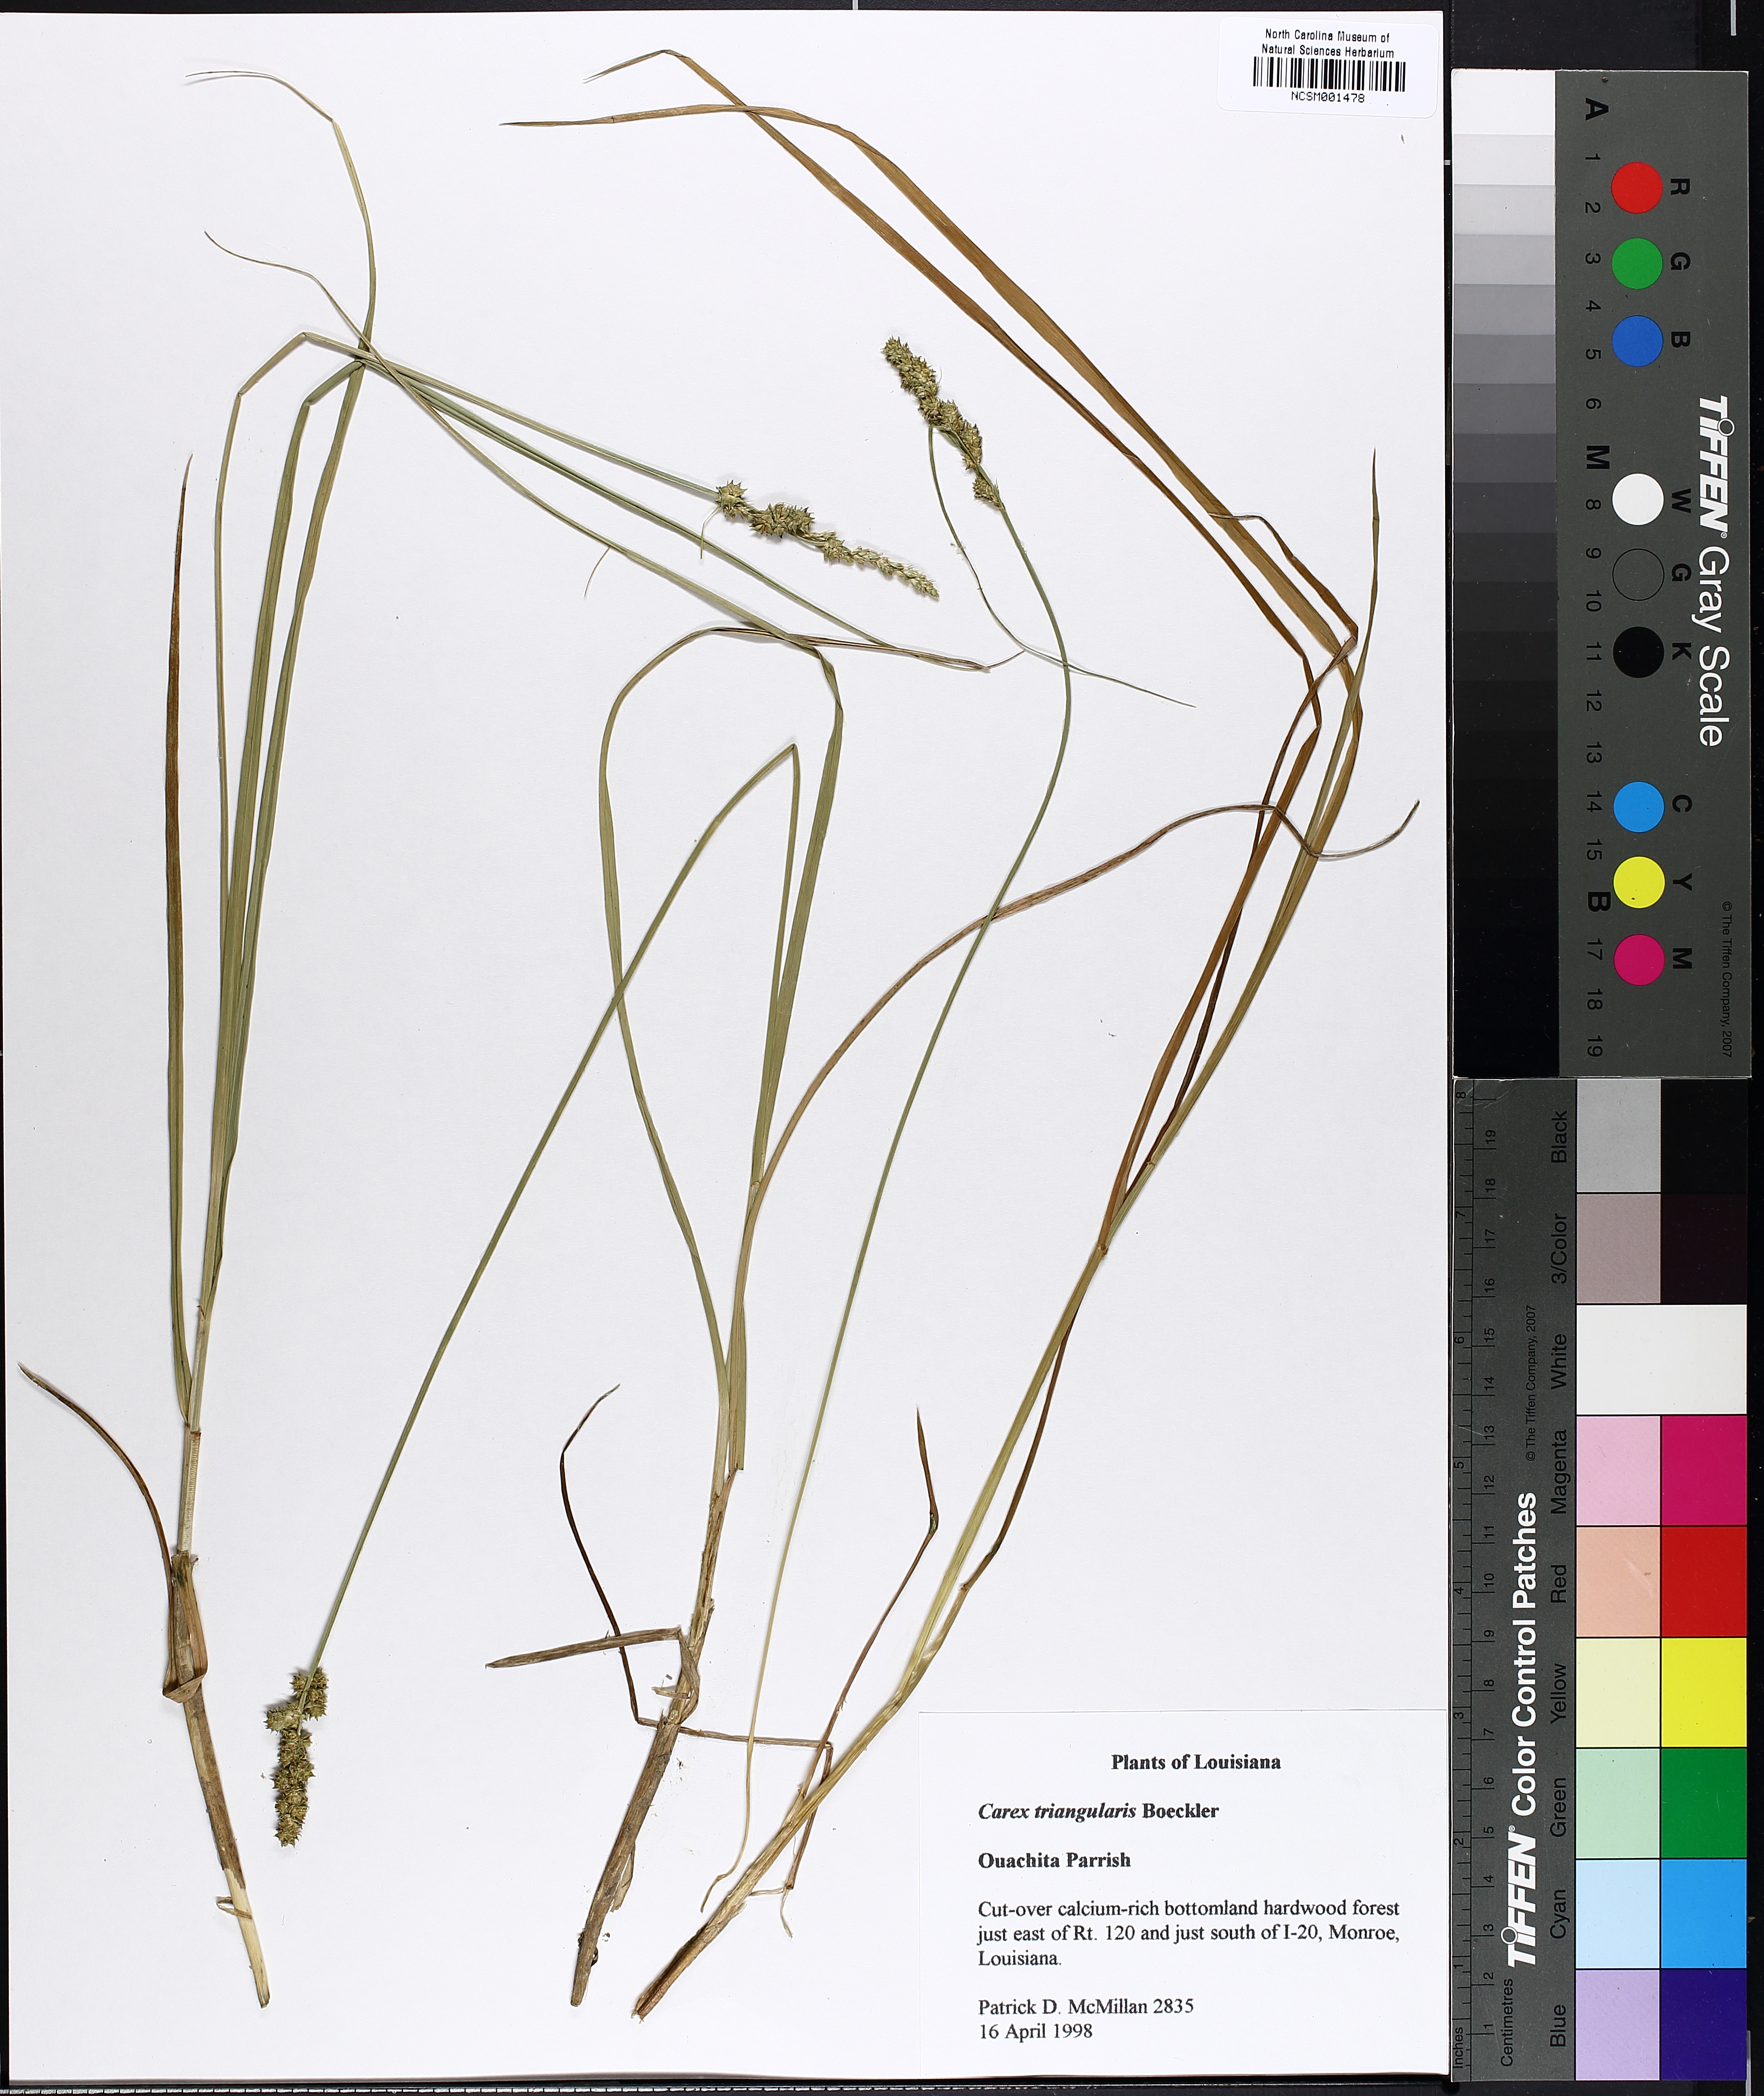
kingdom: Plantae
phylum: Tracheophyta
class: Liliopsida
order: Poales
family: Cyperaceae
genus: Carex
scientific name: Carex triangularis
